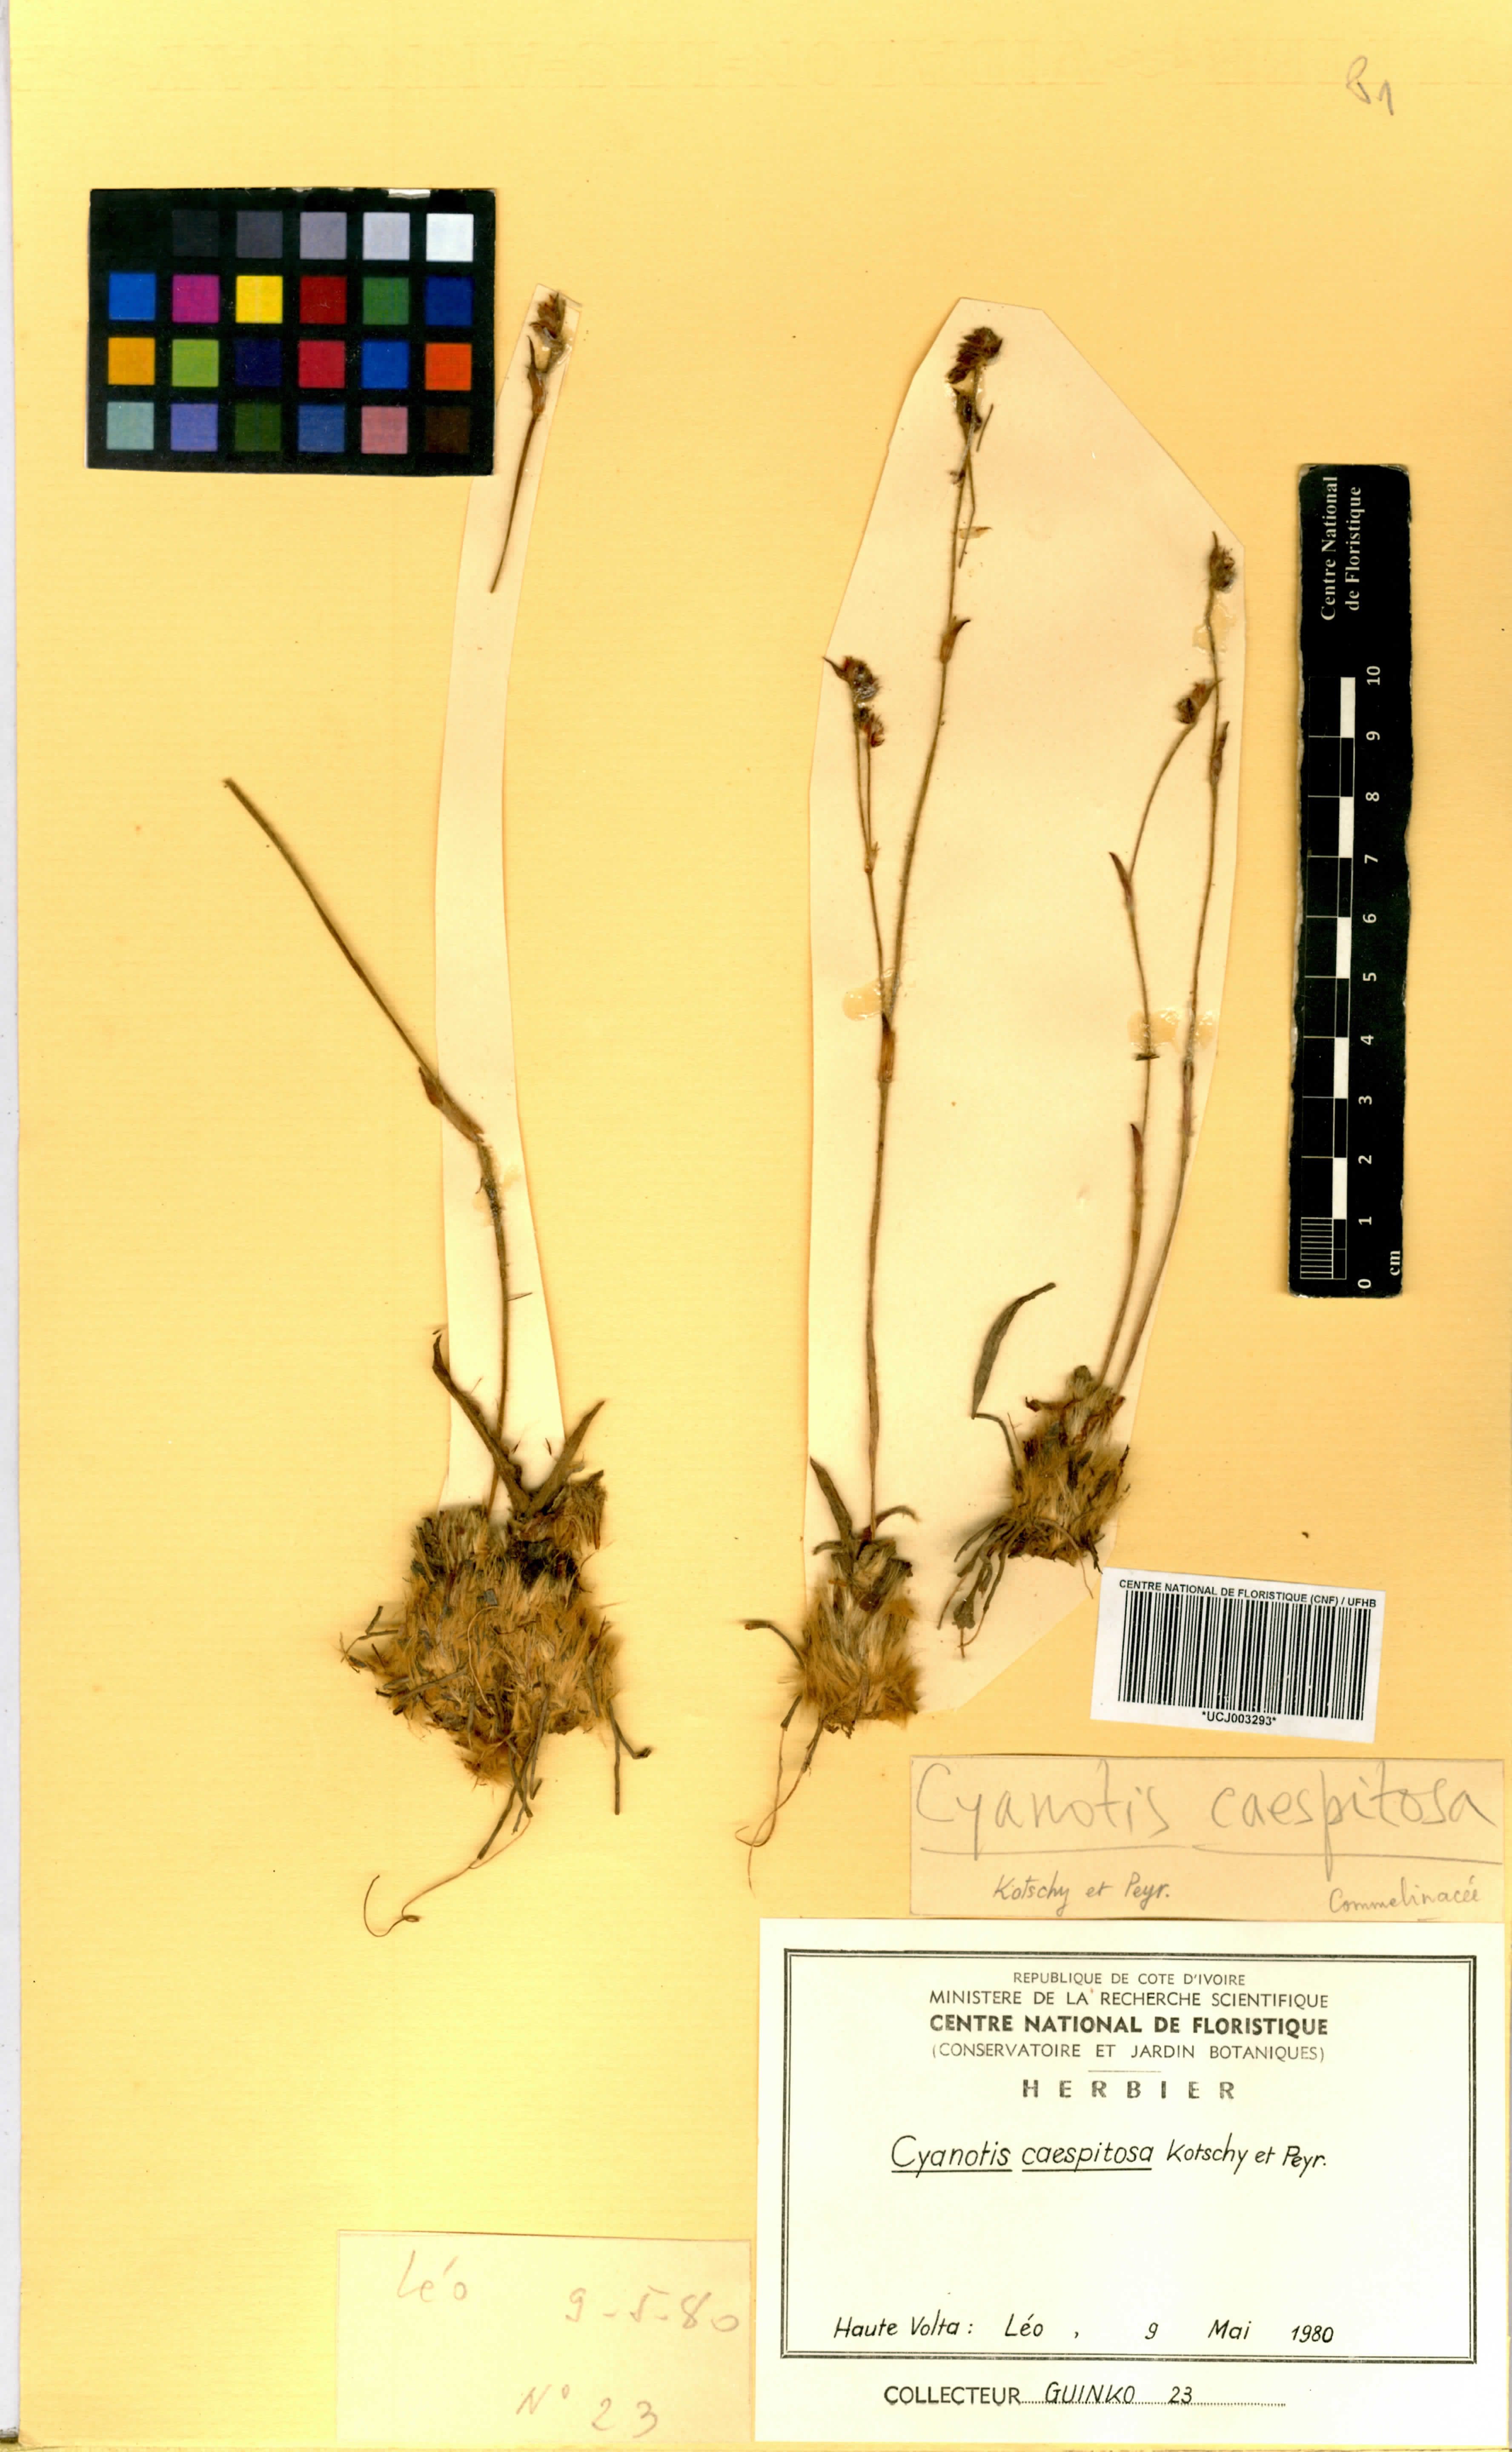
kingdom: Plantae
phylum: Tracheophyta
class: Liliopsida
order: Commelinales
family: Commelinaceae
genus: Cyanotis
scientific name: Cyanotis caespitosa
